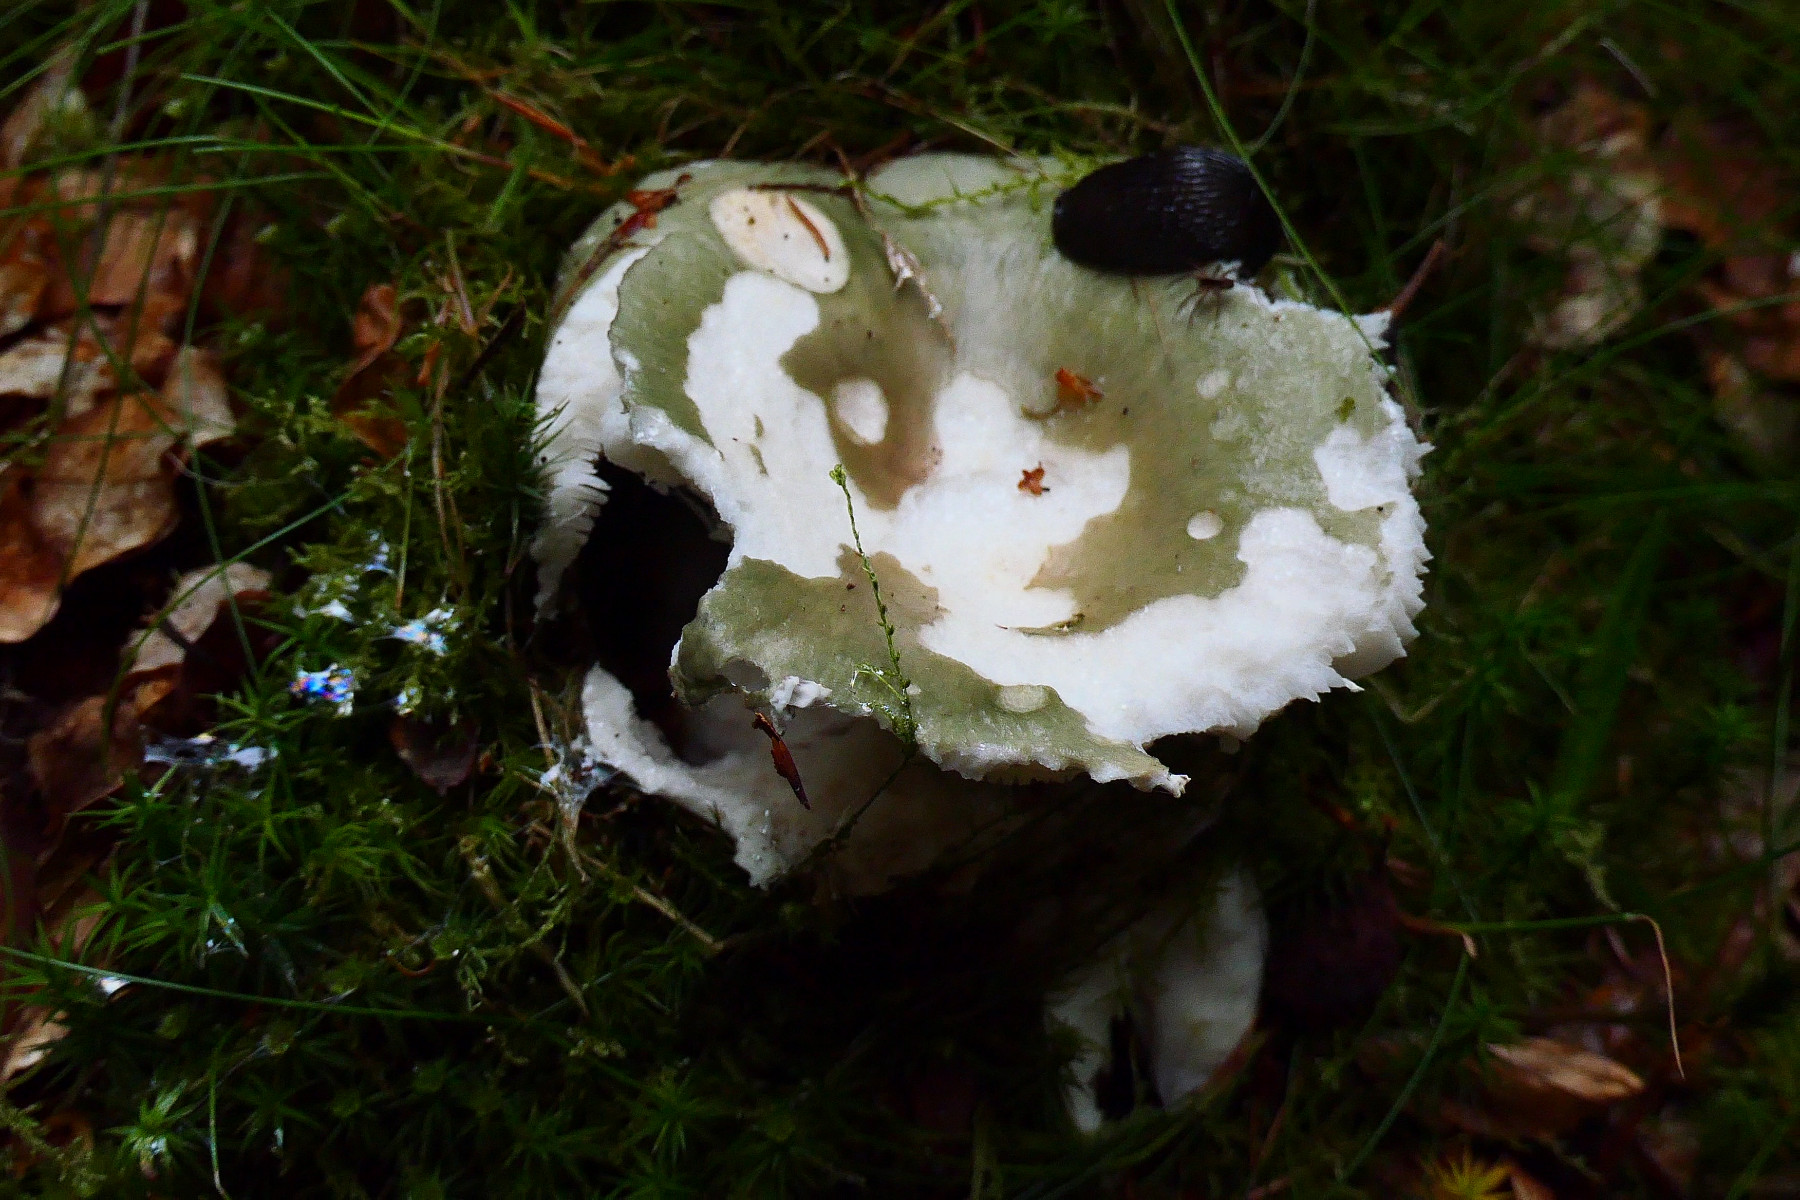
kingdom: Fungi
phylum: Basidiomycota
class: Agaricomycetes
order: Russulales
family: Russulaceae
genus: Russula
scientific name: Russula cyanoxantha
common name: broget skørhat
